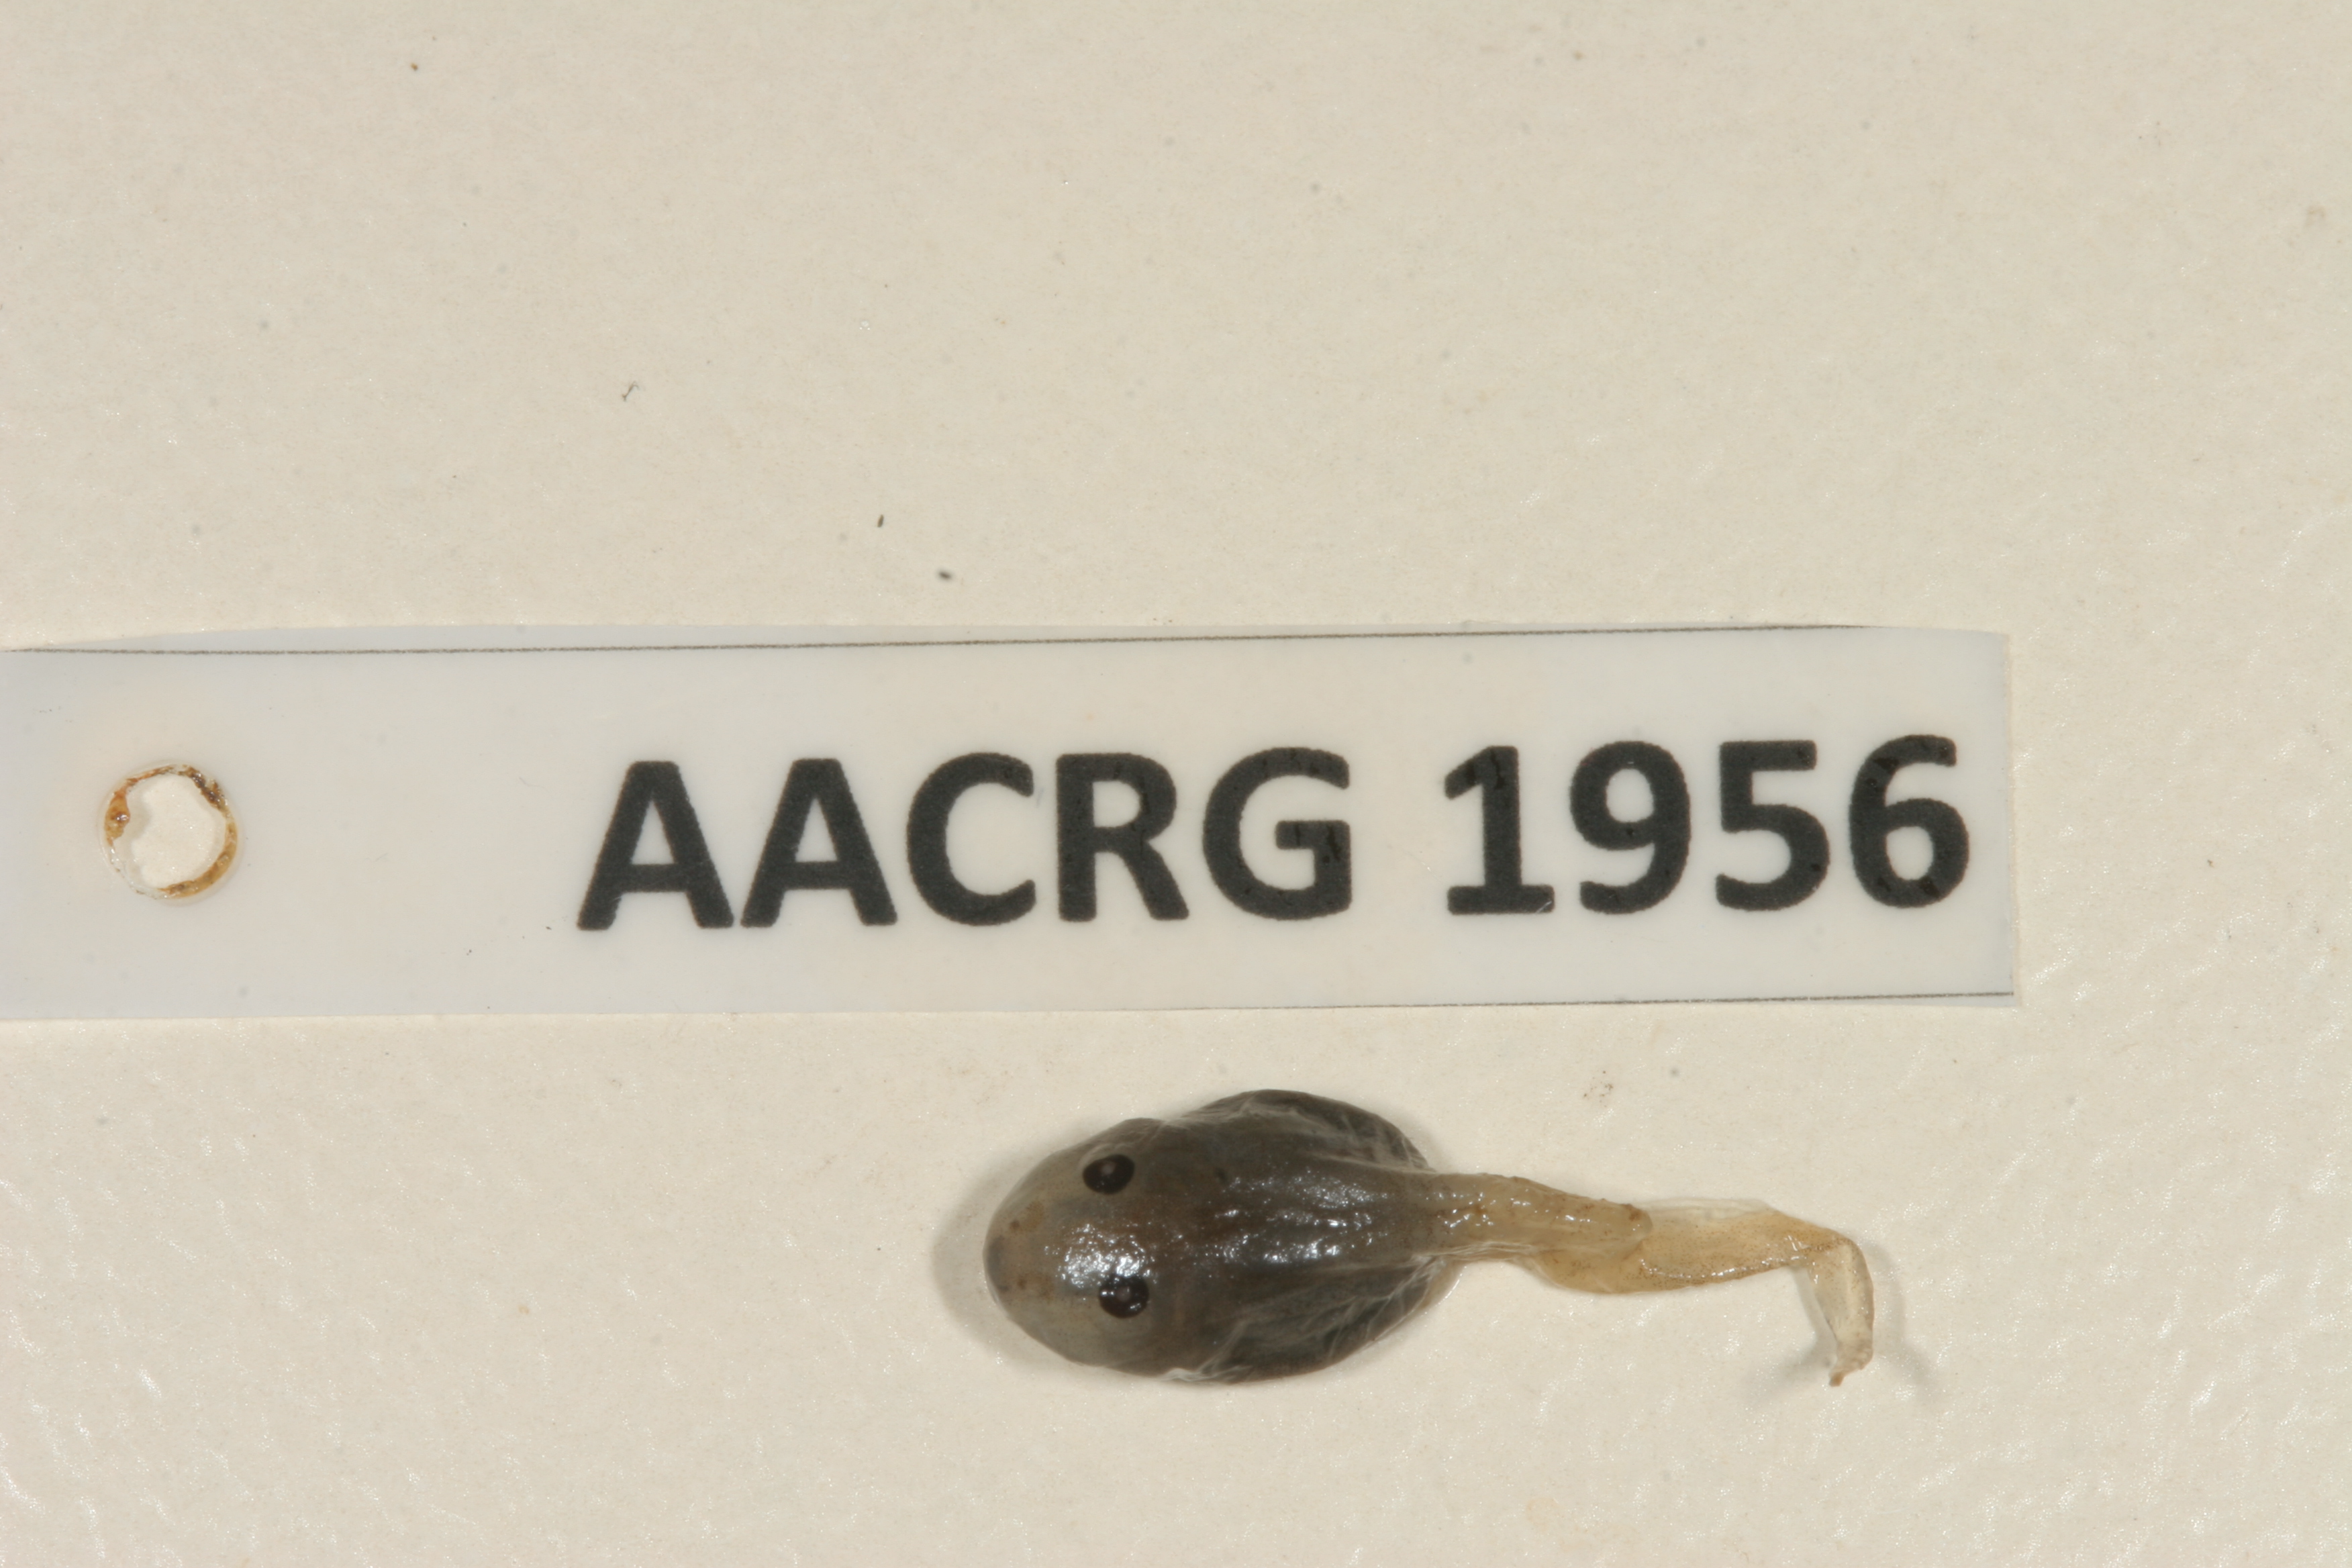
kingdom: Animalia
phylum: Chordata
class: Amphibia
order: Anura
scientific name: Anura
